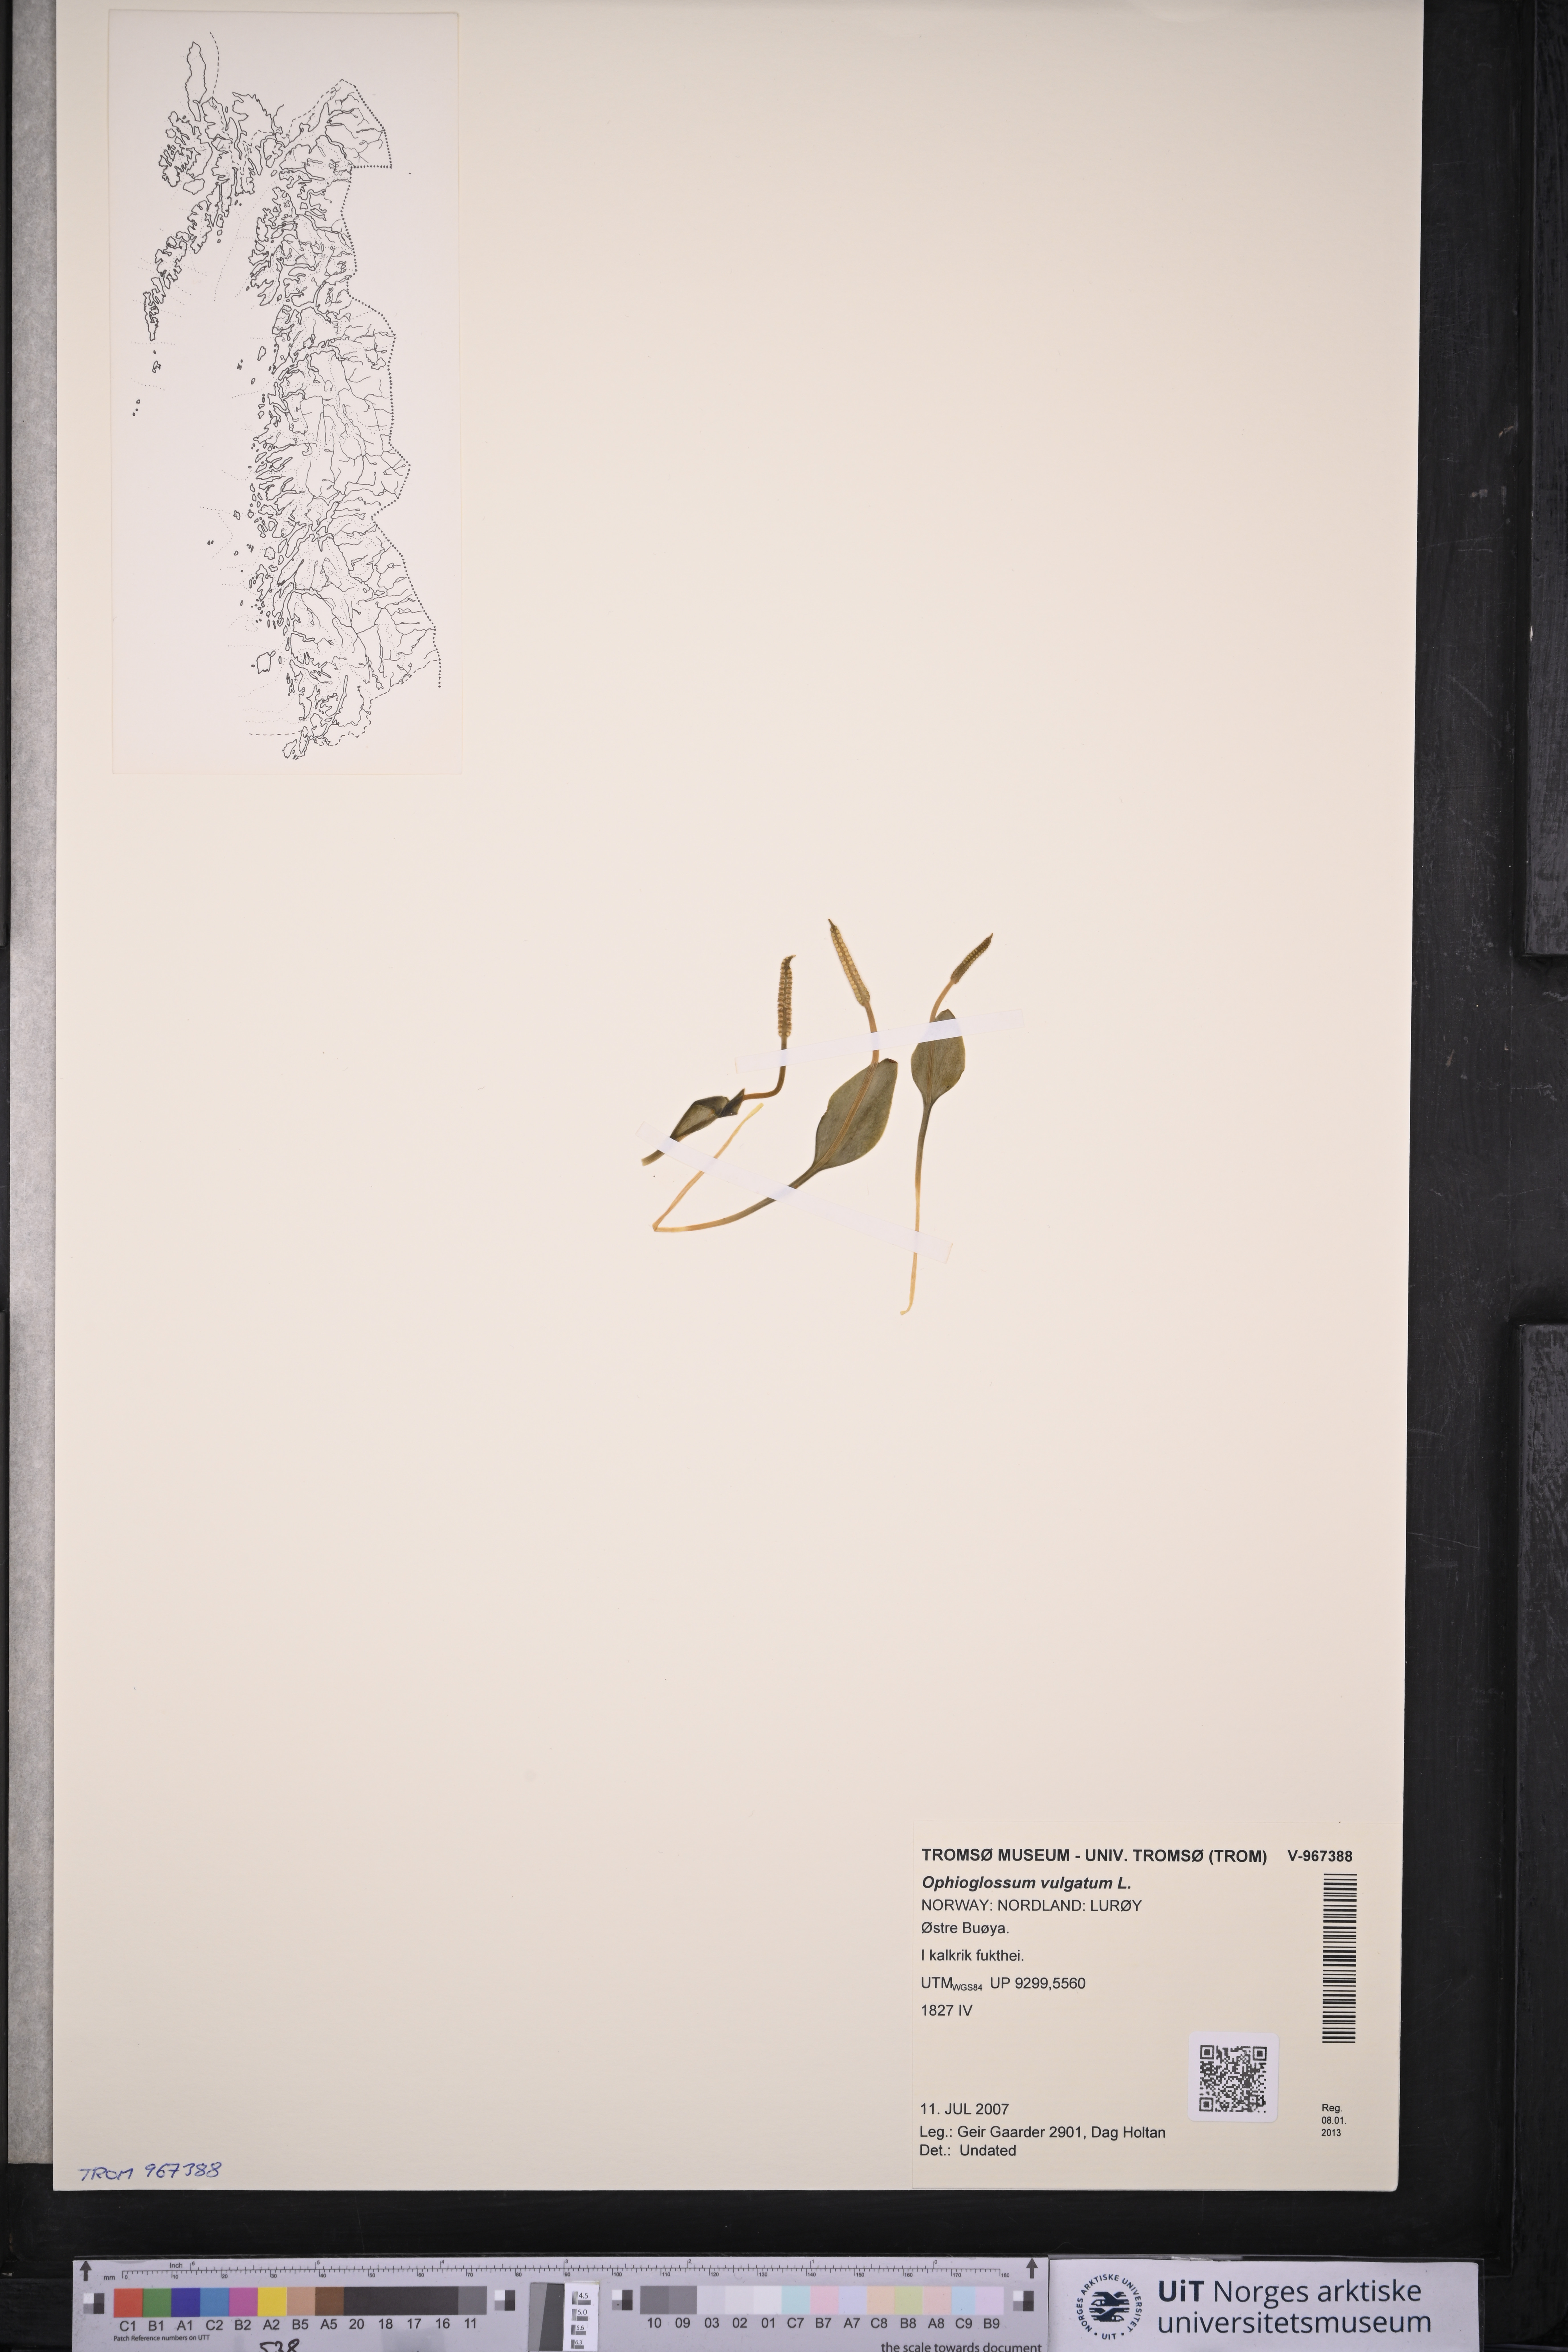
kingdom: Plantae
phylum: Tracheophyta
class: Polypodiopsida
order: Ophioglossales
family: Ophioglossaceae
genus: Ophioglossum
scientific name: Ophioglossum vulgatum
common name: Adder's-tongue
